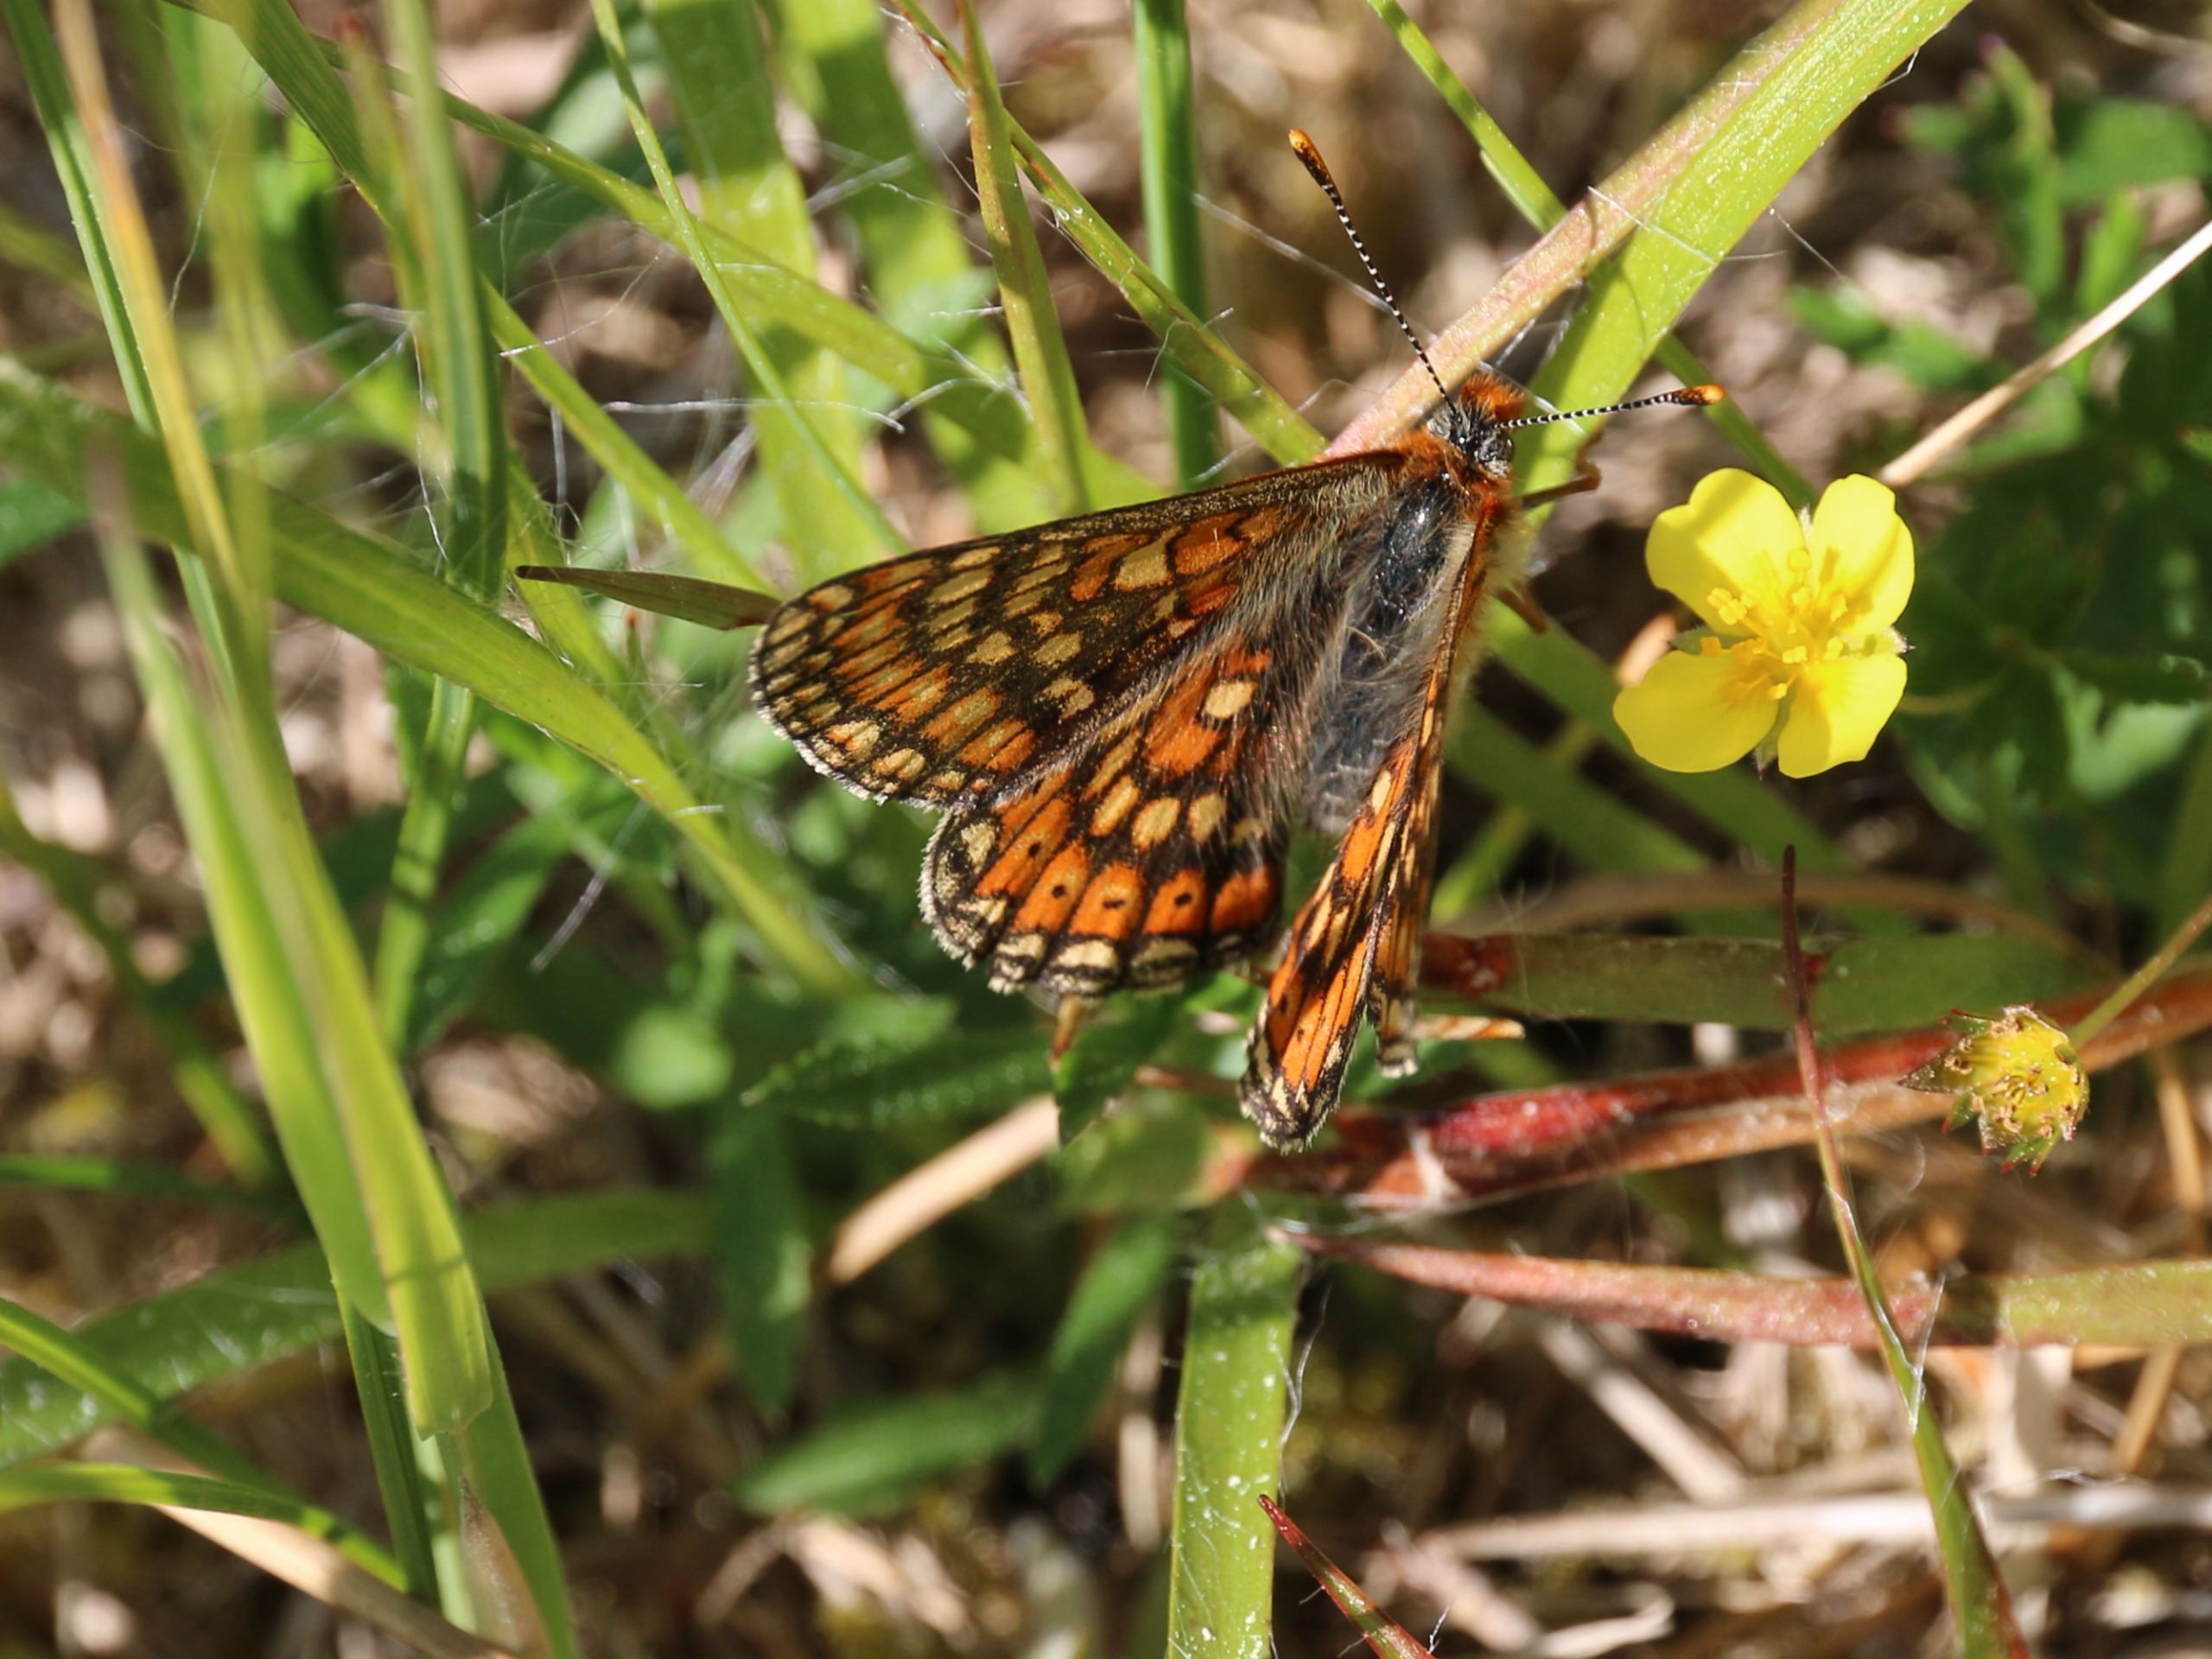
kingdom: Animalia
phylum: Arthropoda
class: Insecta
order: Lepidoptera
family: Nymphalidae
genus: Euphydryas
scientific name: Euphydryas aurinia
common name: Hedepletvinge
